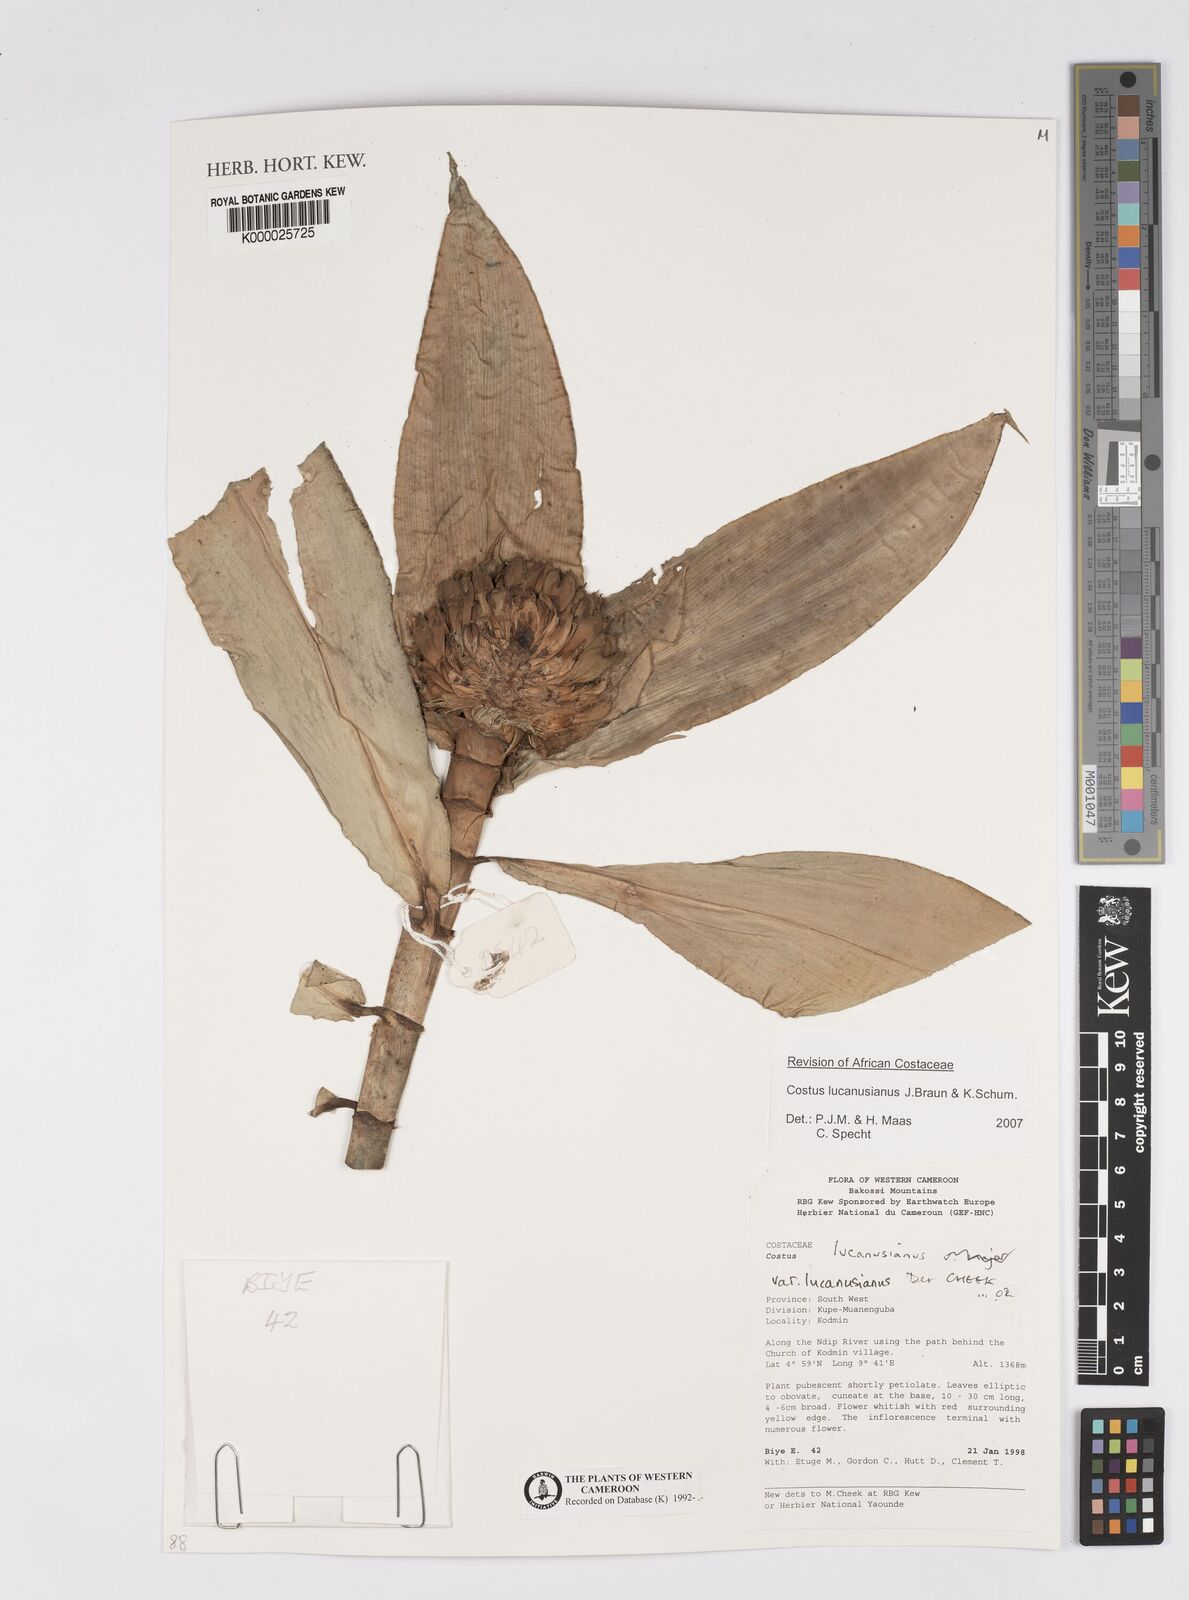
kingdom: Plantae
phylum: Tracheophyta
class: Liliopsida
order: Zingiberales
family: Costaceae
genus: Costus
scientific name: Costus lucanusianus
